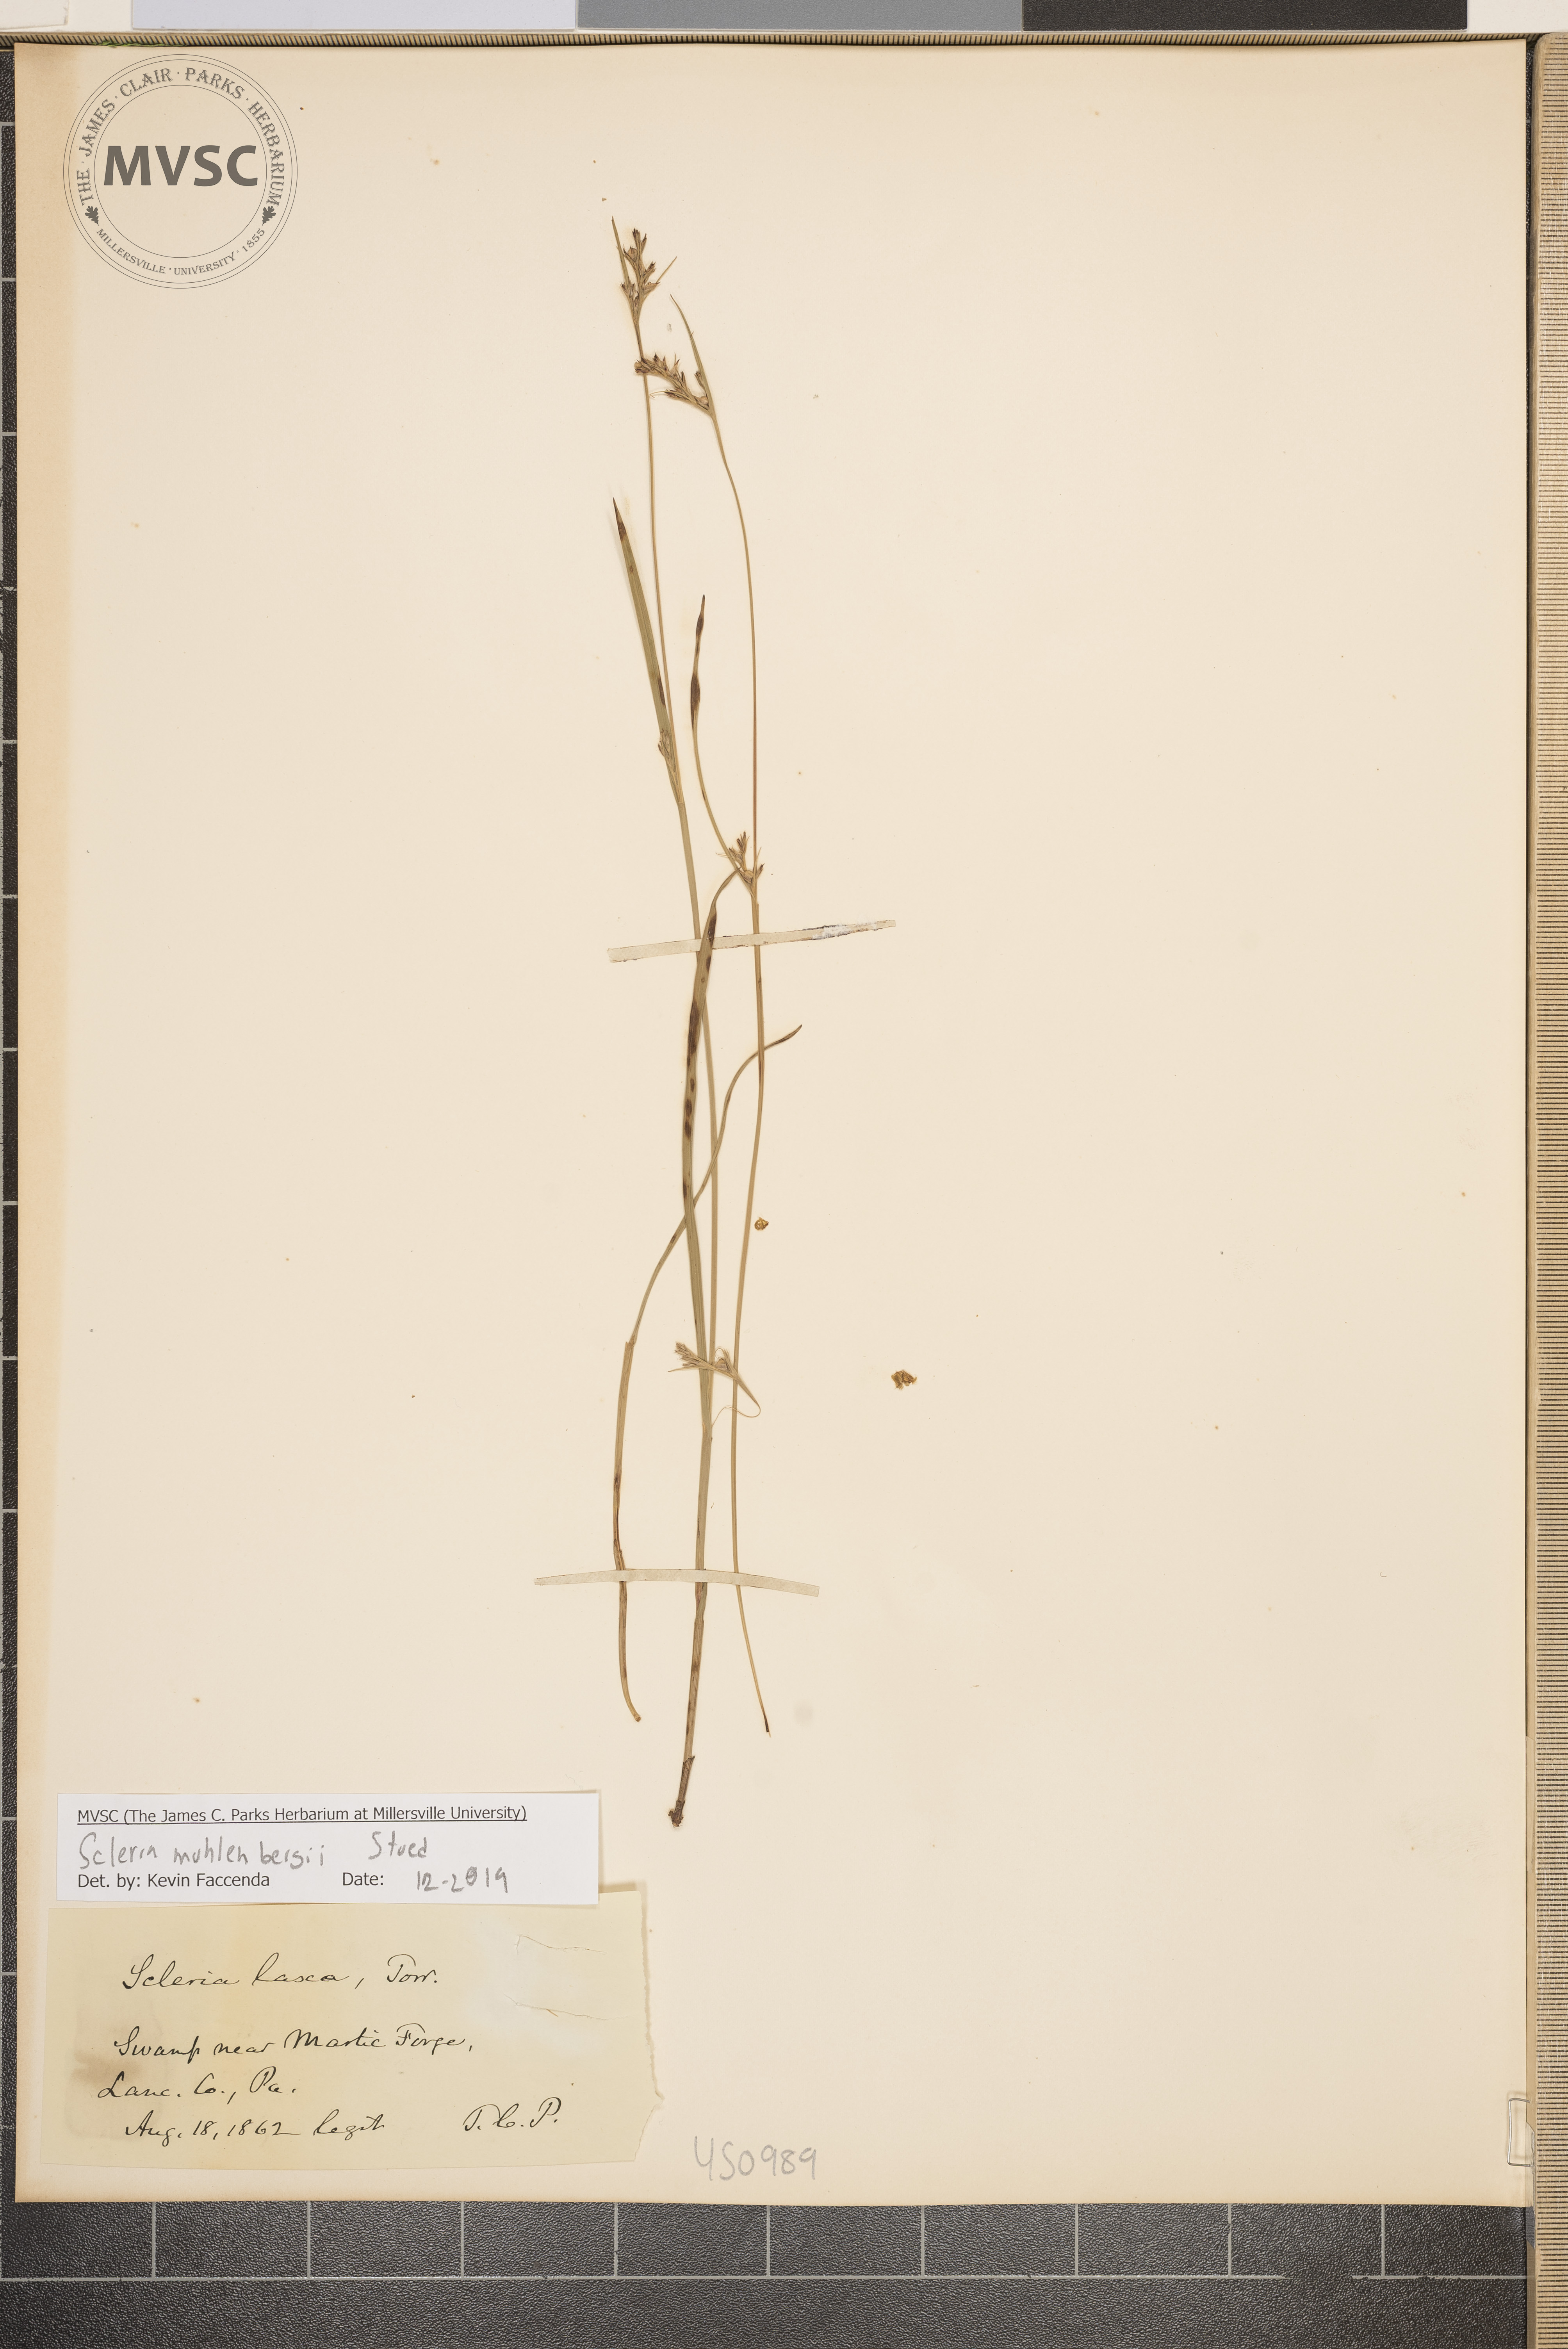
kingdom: Plantae
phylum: Tracheophyta
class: Liliopsida
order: Poales
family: Cyperaceae
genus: Scleria
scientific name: Scleria muehlenbergii
